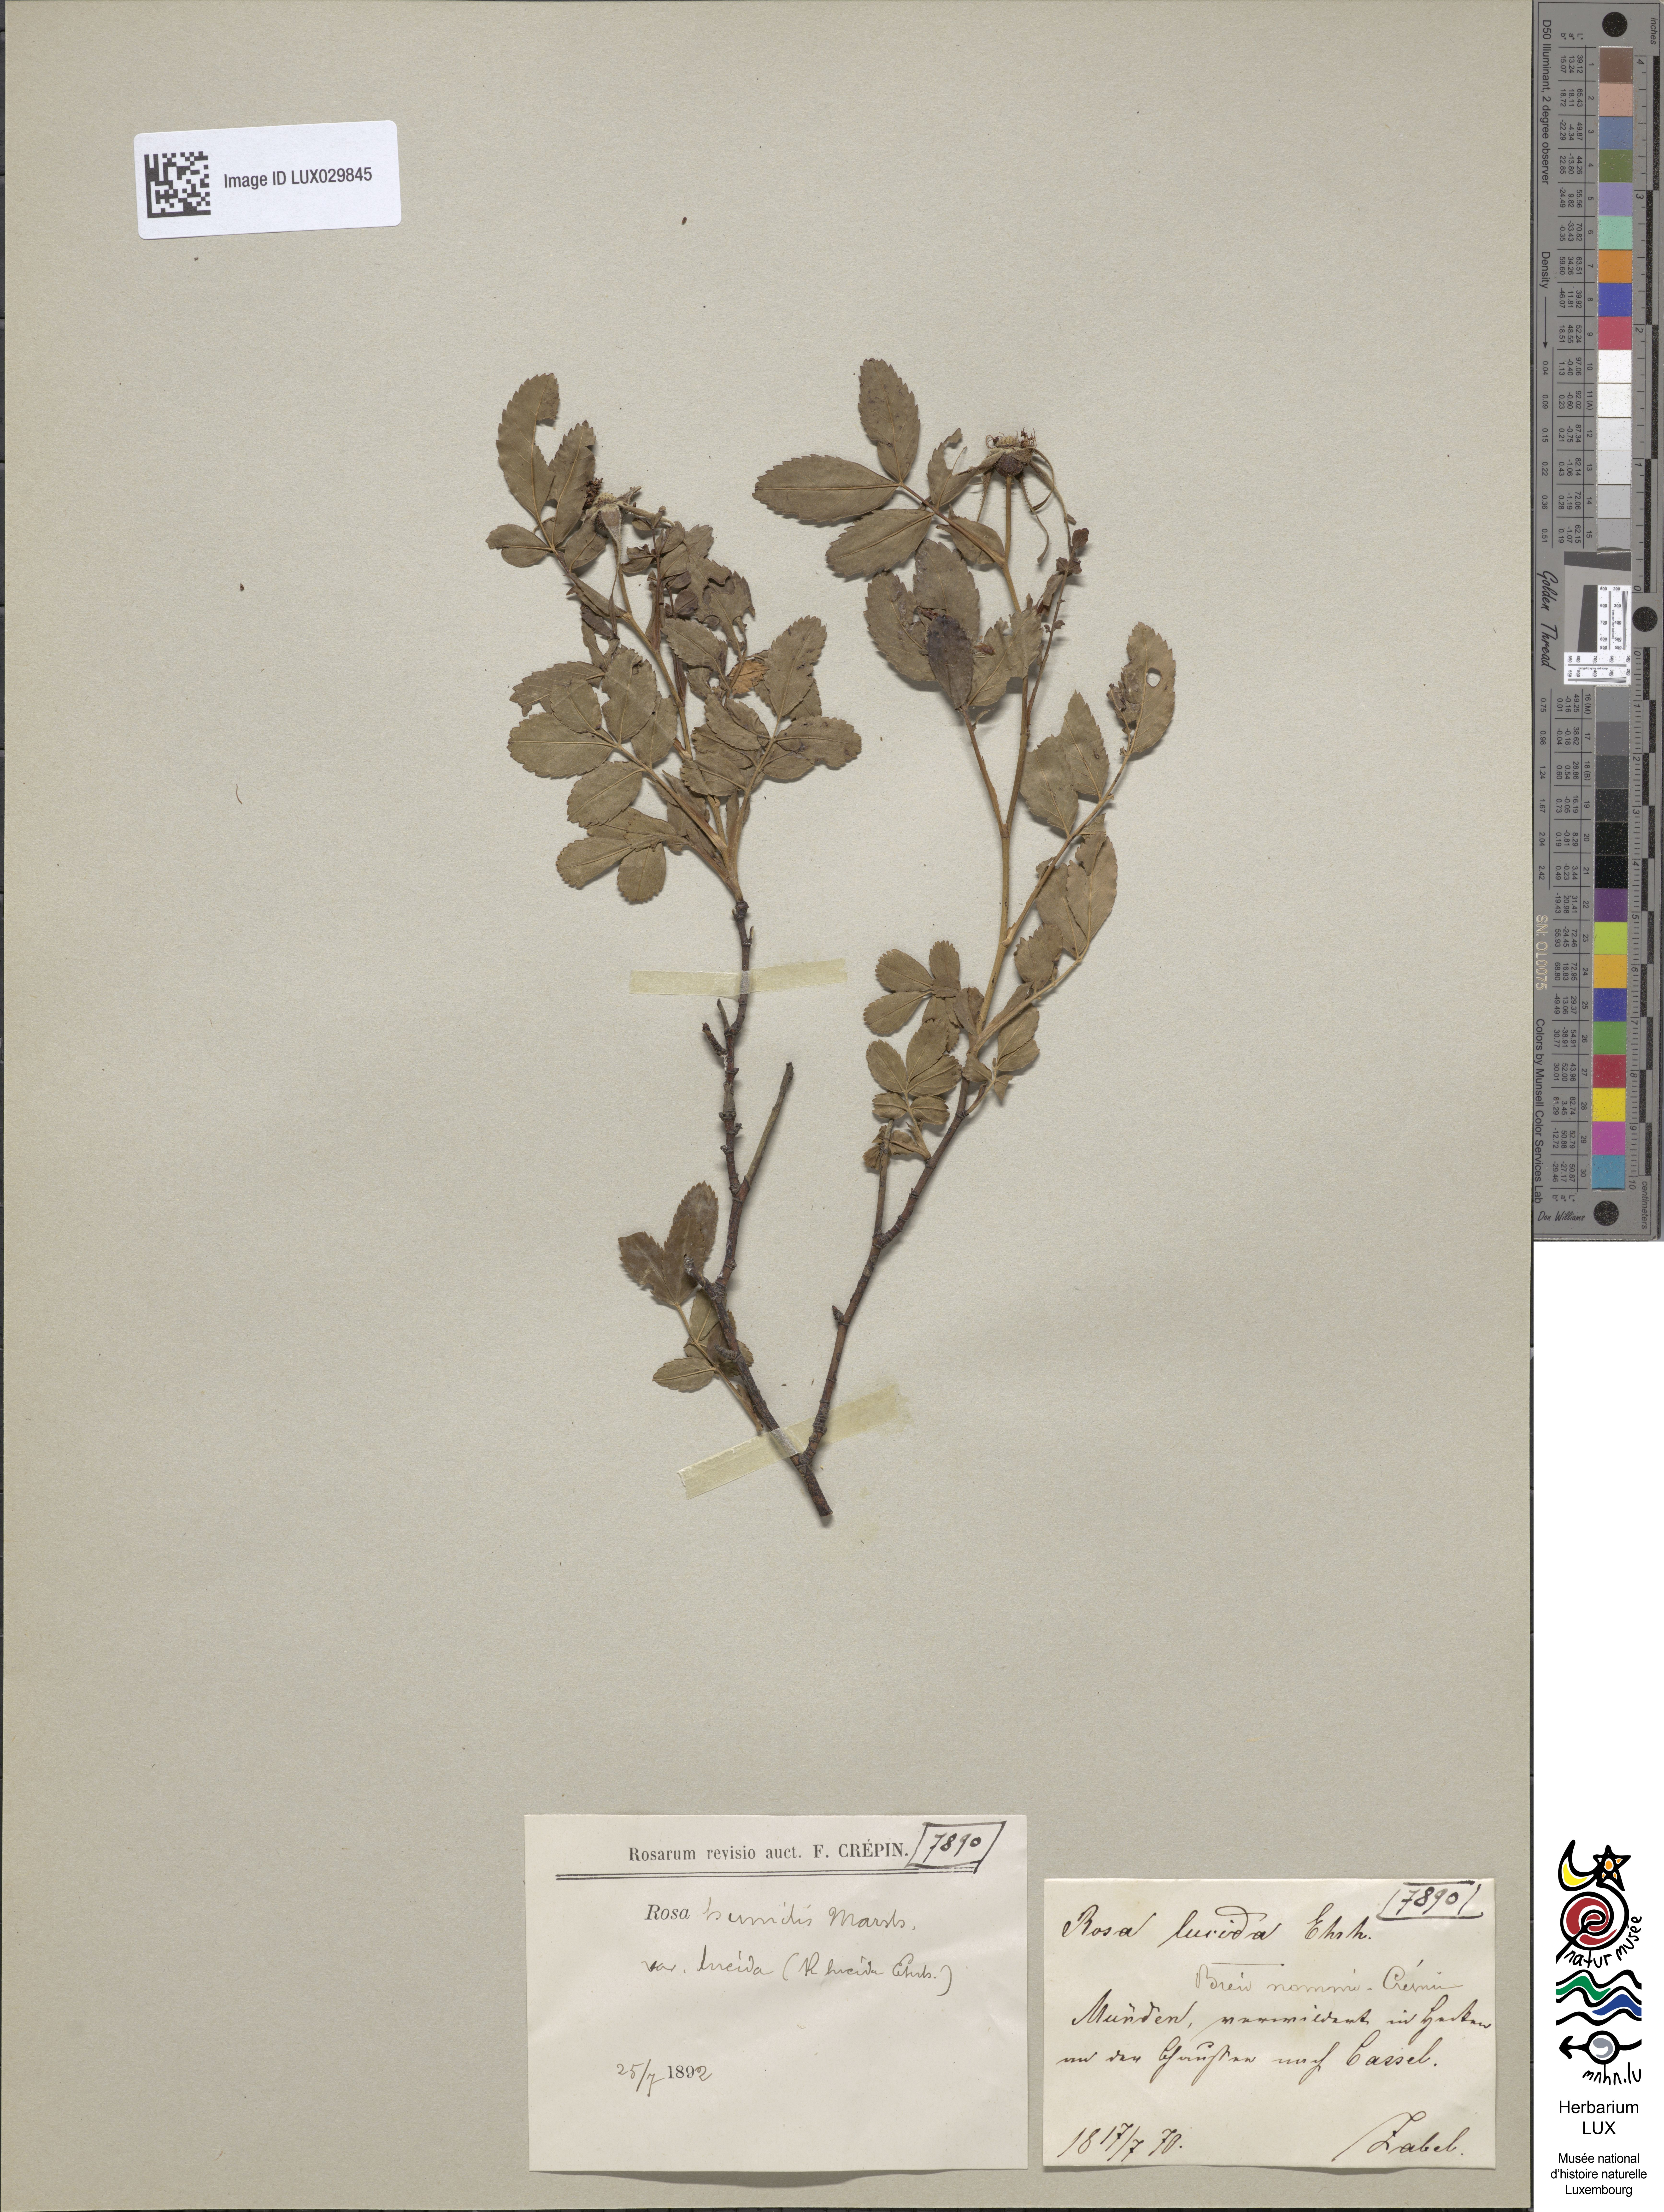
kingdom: Plantae
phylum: Tracheophyta
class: Magnoliopsida
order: Rosales
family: Rosaceae
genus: Rosa
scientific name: Rosa virginiana
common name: Virginian rose
